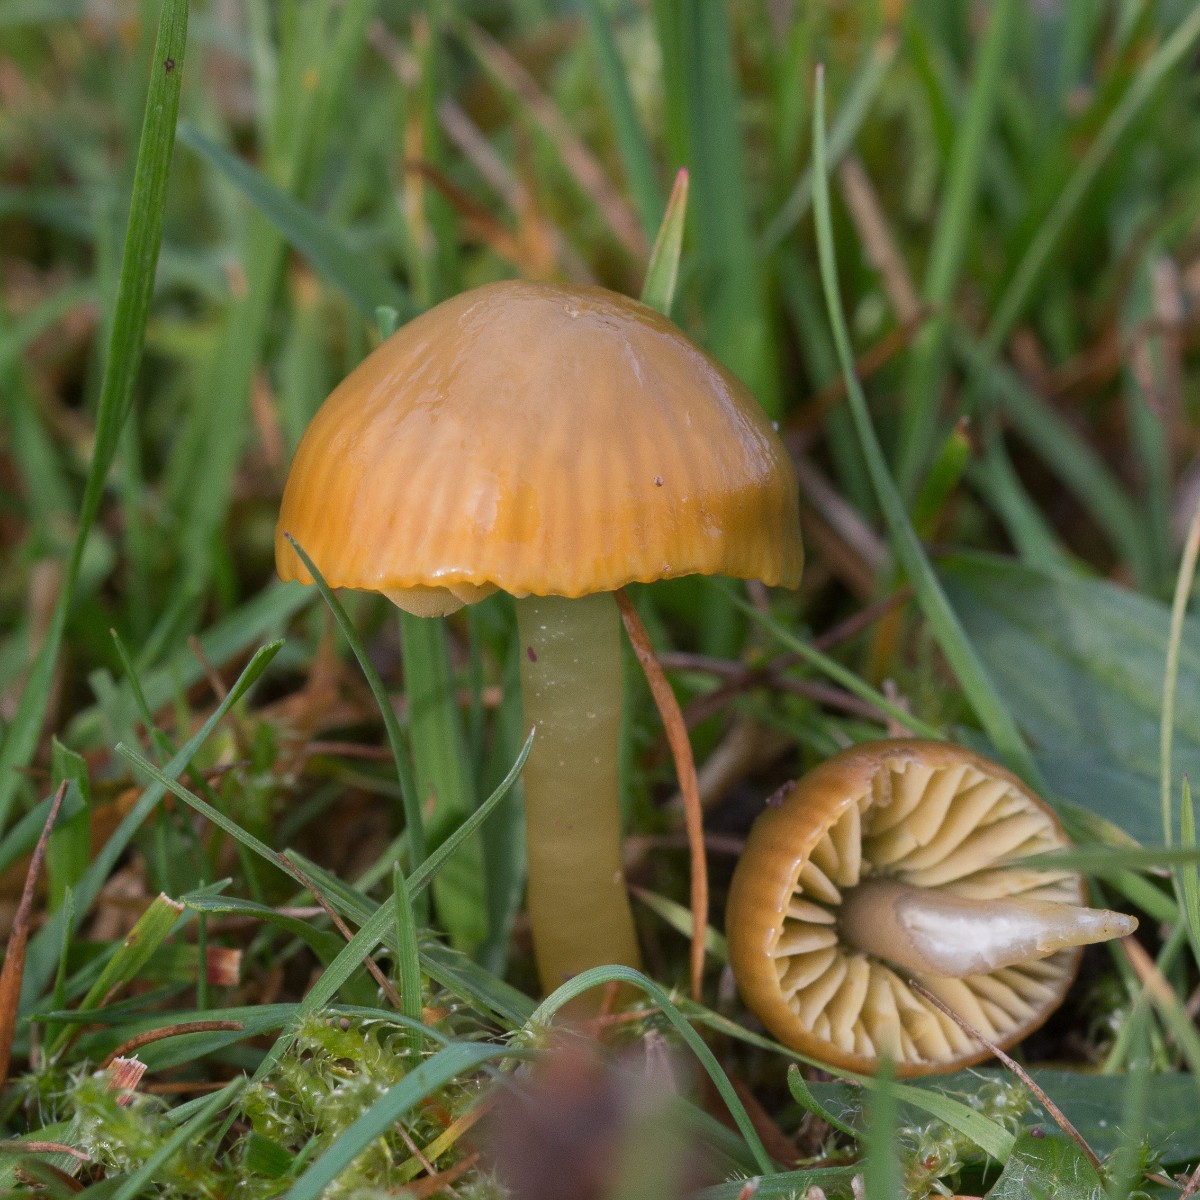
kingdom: Fungi
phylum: Basidiomycota
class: Agaricomycetes
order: Agaricales
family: Hygrophoraceae
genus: Gliophorus
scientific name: Gliophorus psittacinus
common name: papegøje-vokshat
